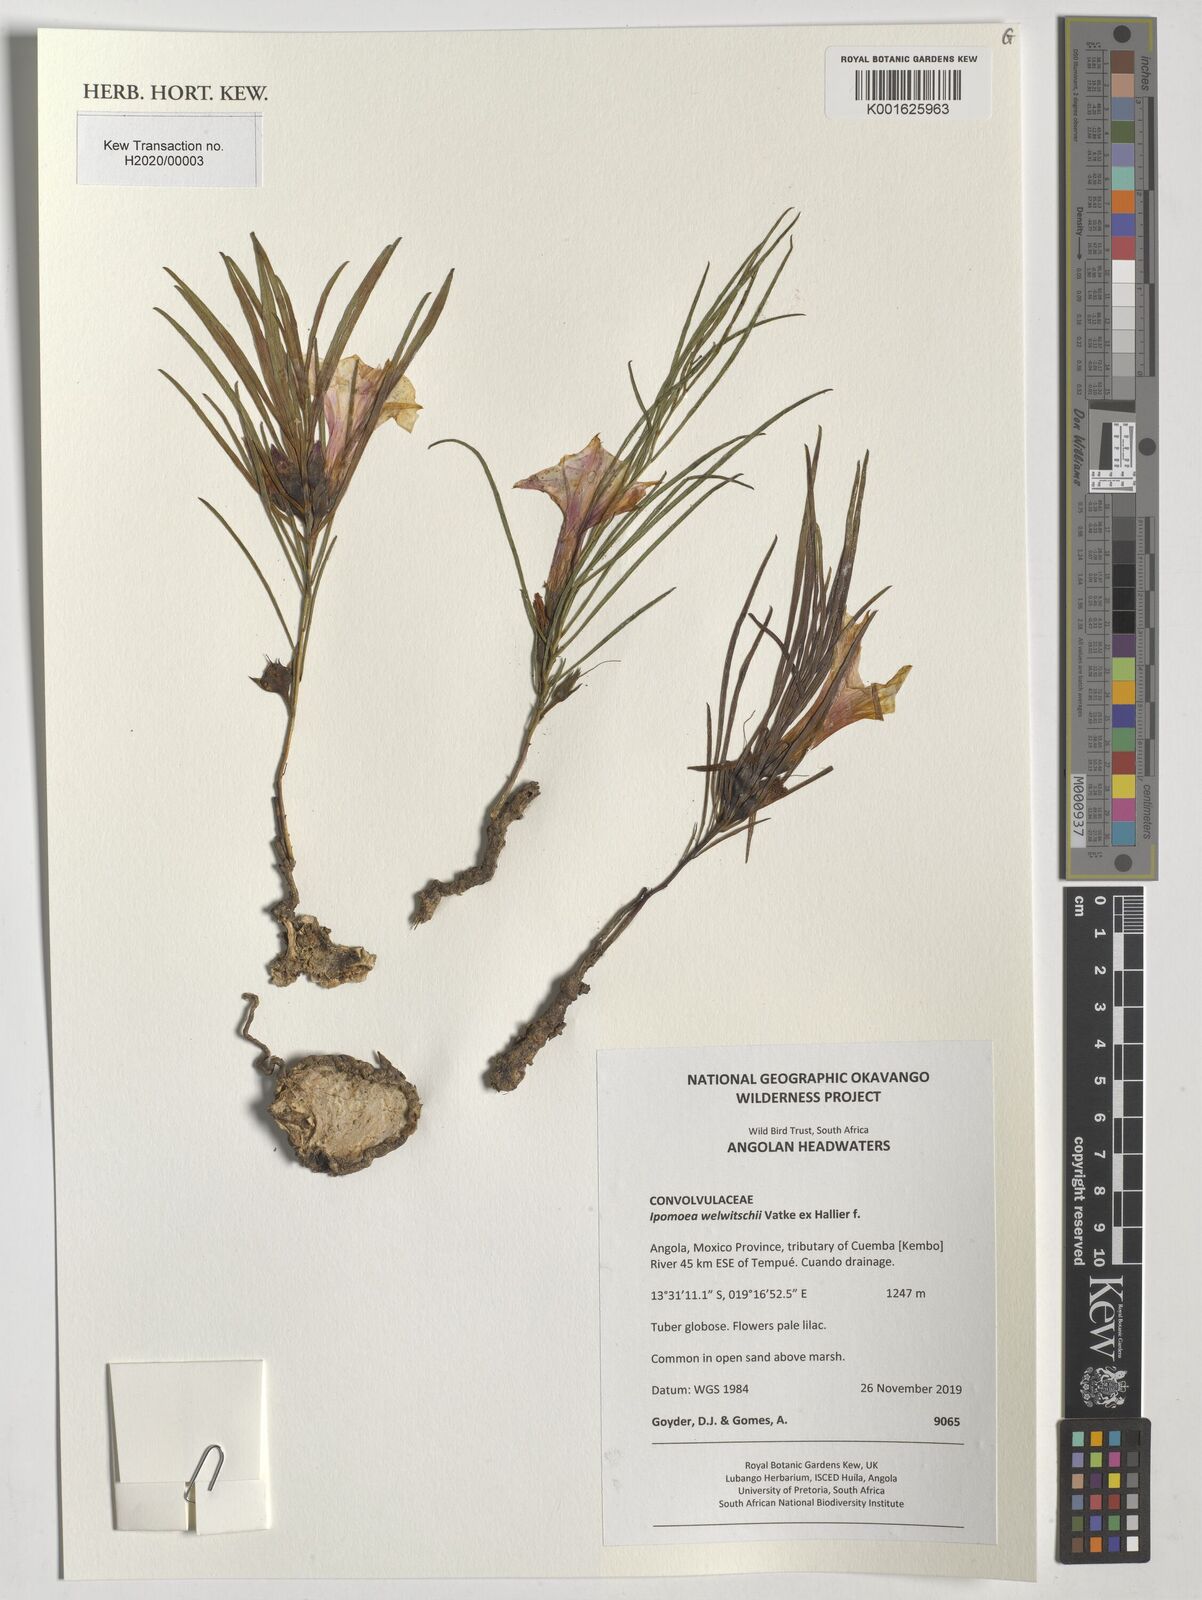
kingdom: Plantae
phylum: Tracheophyta
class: Magnoliopsida
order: Solanales
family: Convolvulaceae
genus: Ipomoea
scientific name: Ipomoea welwitschii
